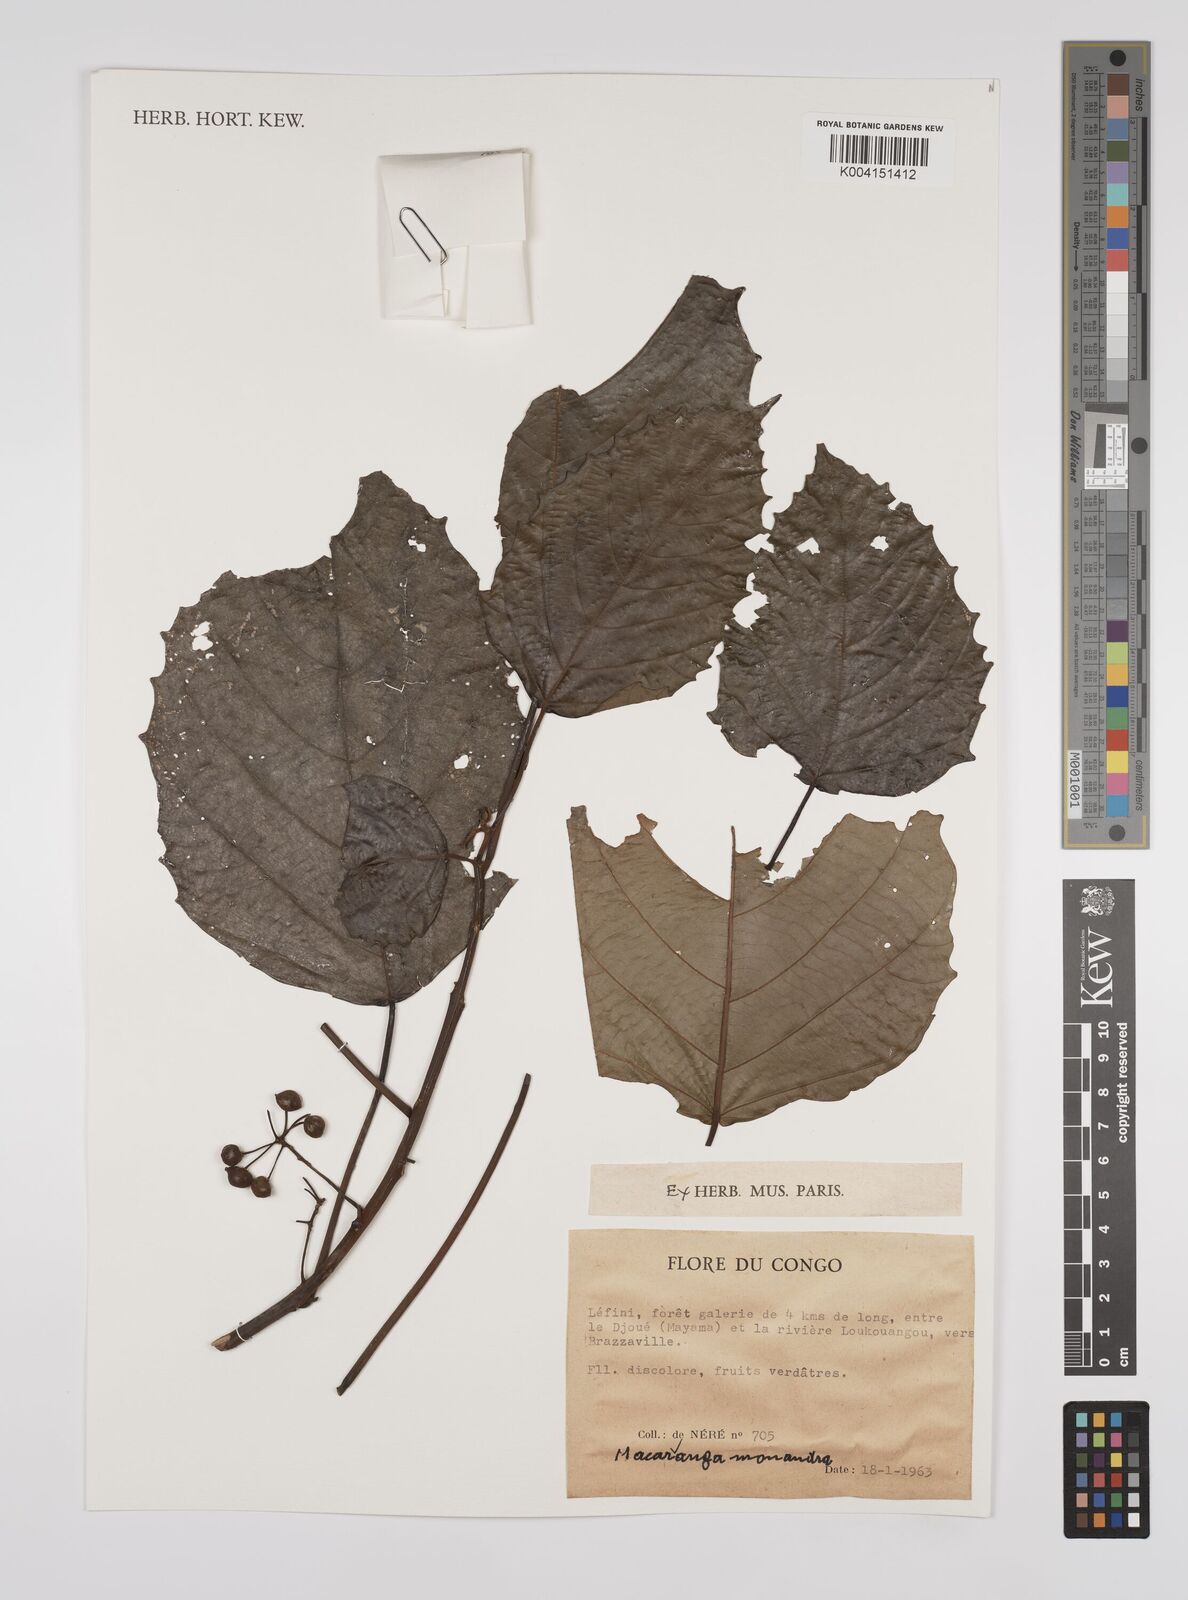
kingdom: Plantae
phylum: Tracheophyta
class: Magnoliopsida
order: Malpighiales
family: Euphorbiaceae
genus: Macaranga
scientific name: Macaranga monandra
